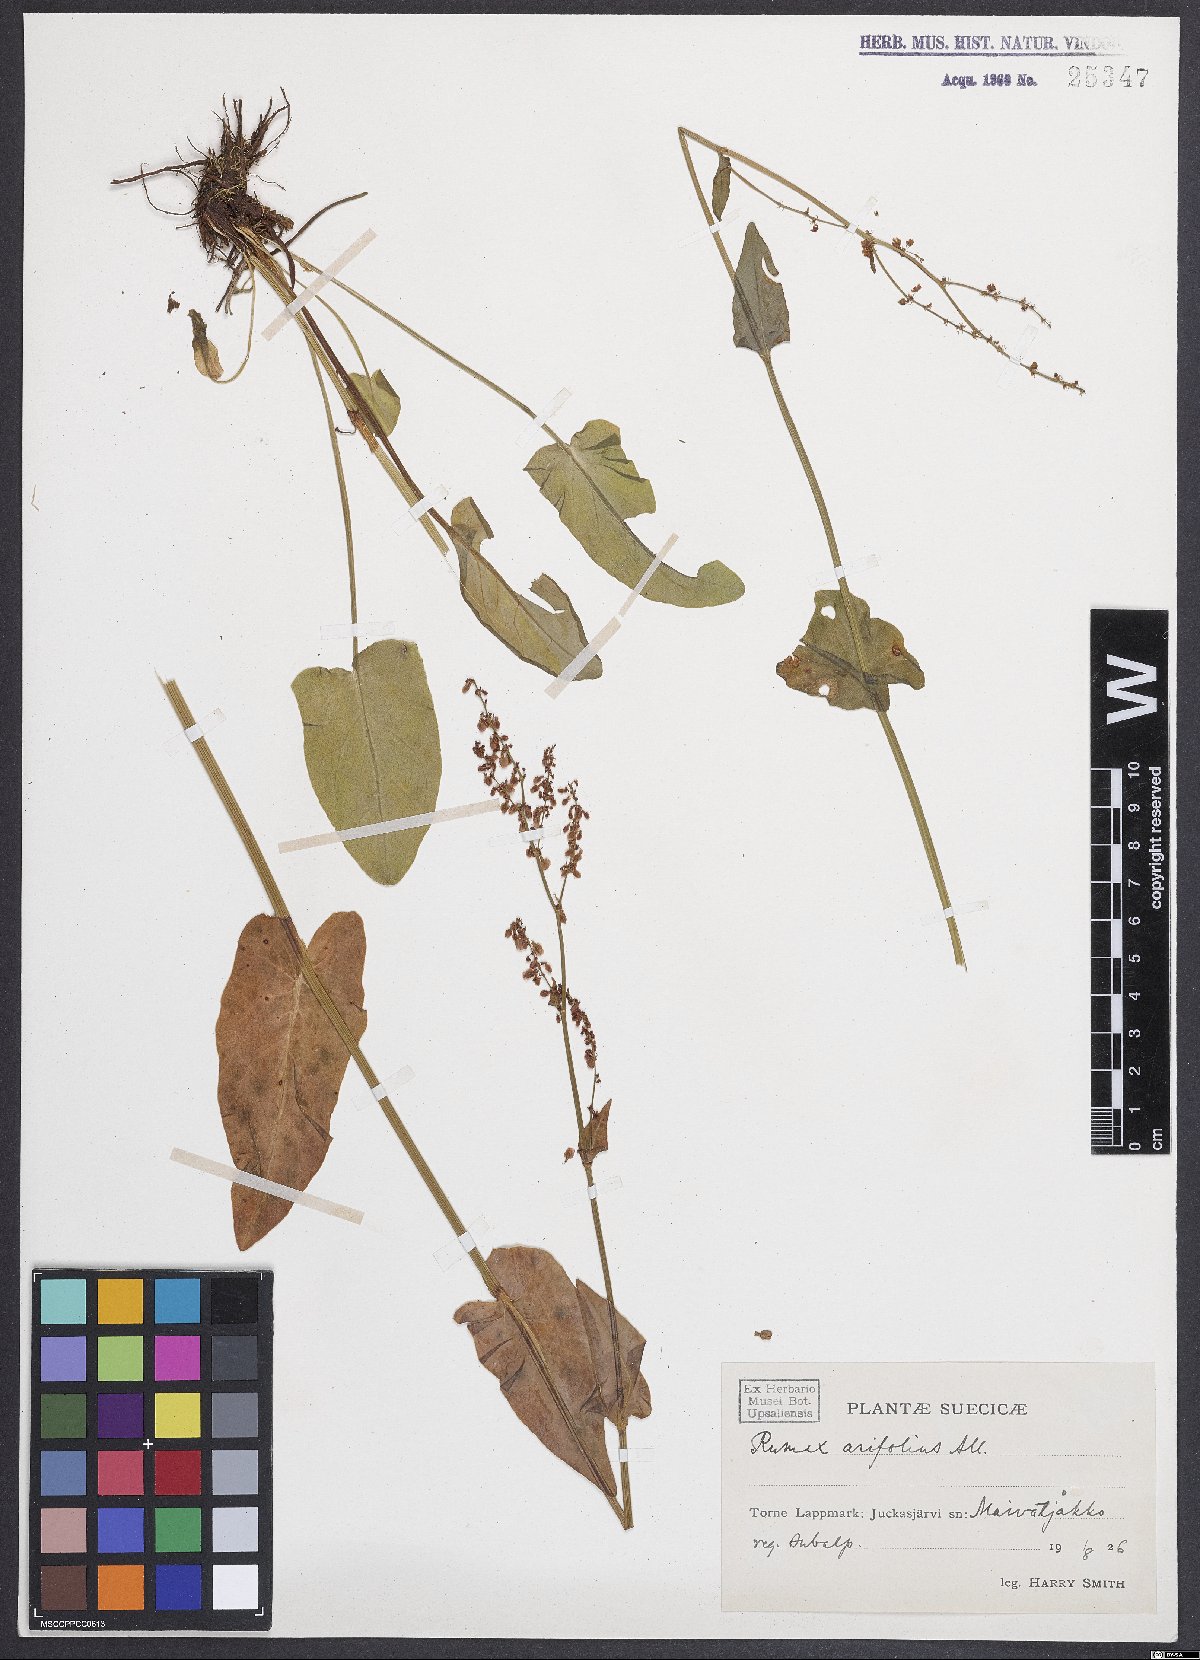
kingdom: Plantae
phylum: Tracheophyta
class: Magnoliopsida
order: Caryophyllales
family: Polygonaceae
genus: Rumex
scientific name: Rumex arifolius
